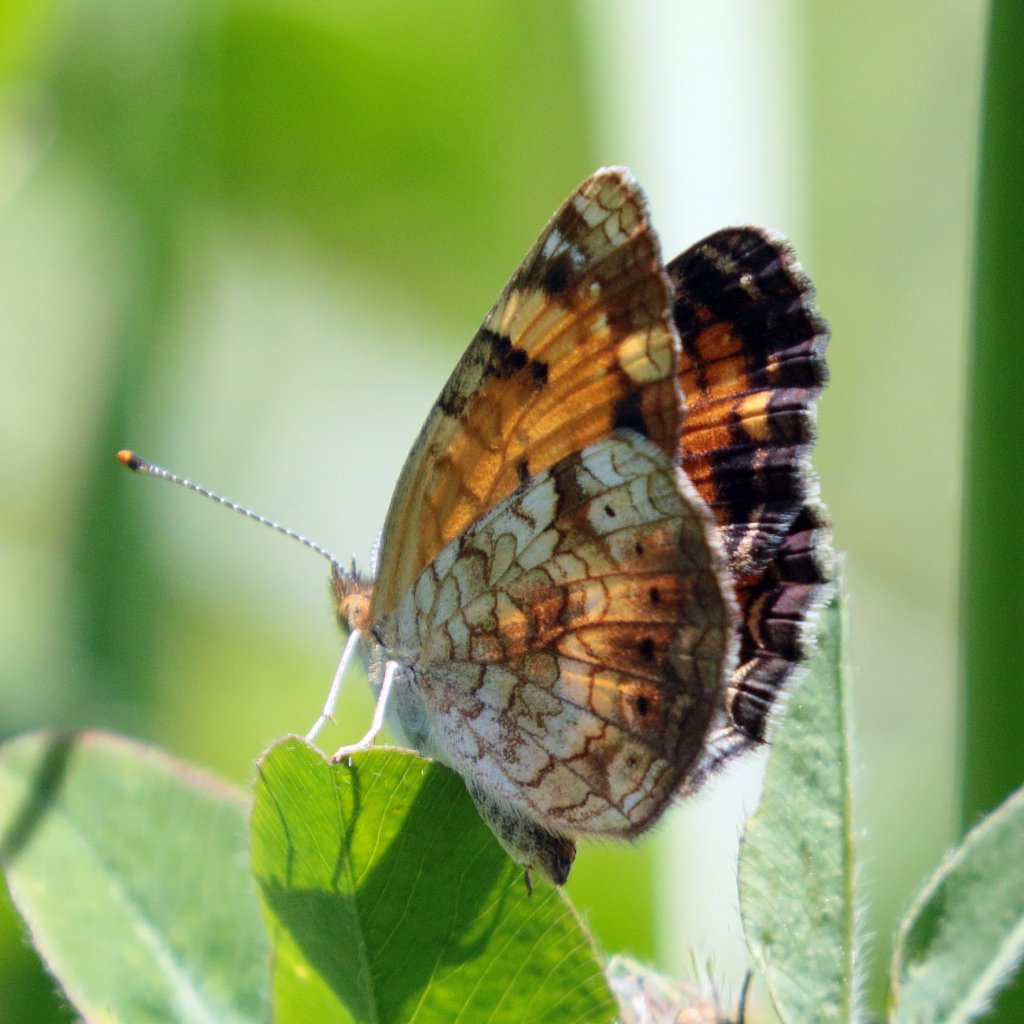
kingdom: Animalia
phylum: Arthropoda
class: Insecta
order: Lepidoptera
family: Nymphalidae
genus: Phyciodes
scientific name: Phyciodes tharos
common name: Northern Crescent
